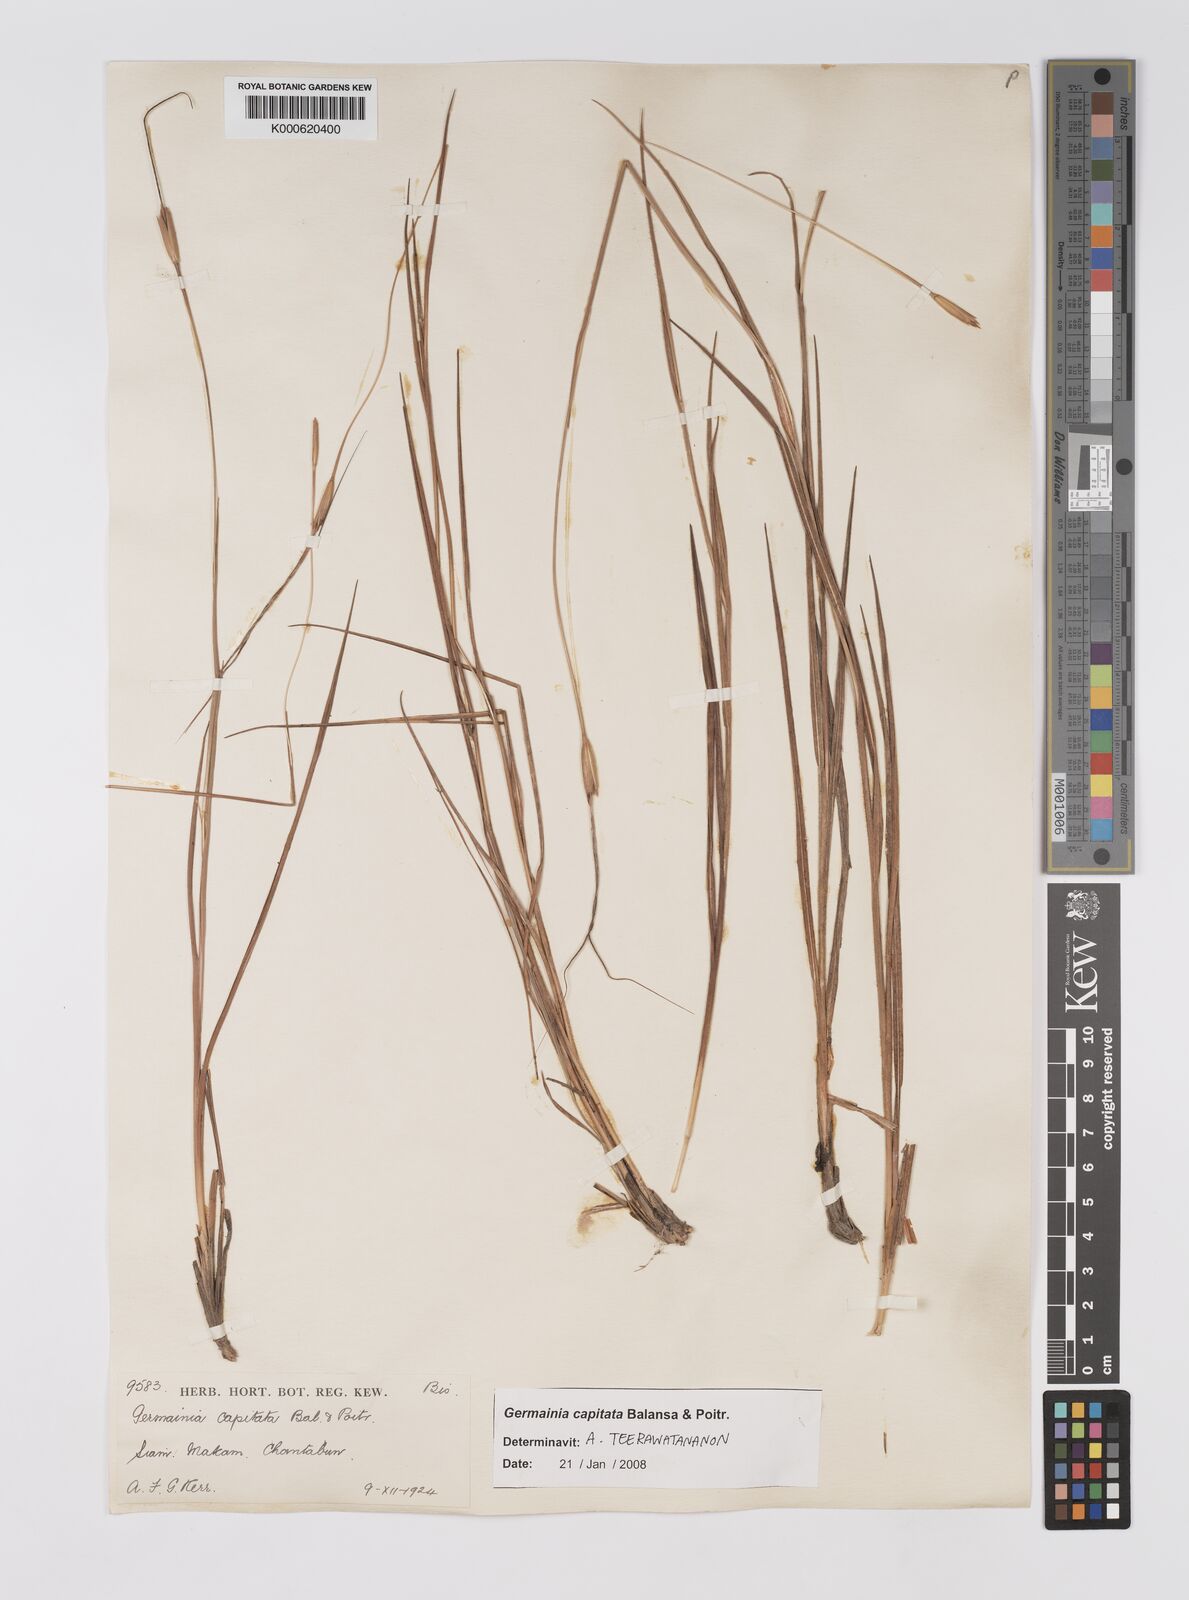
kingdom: Plantae
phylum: Tracheophyta
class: Liliopsida
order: Poales
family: Poaceae
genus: Germainia
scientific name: Germainia capitata
